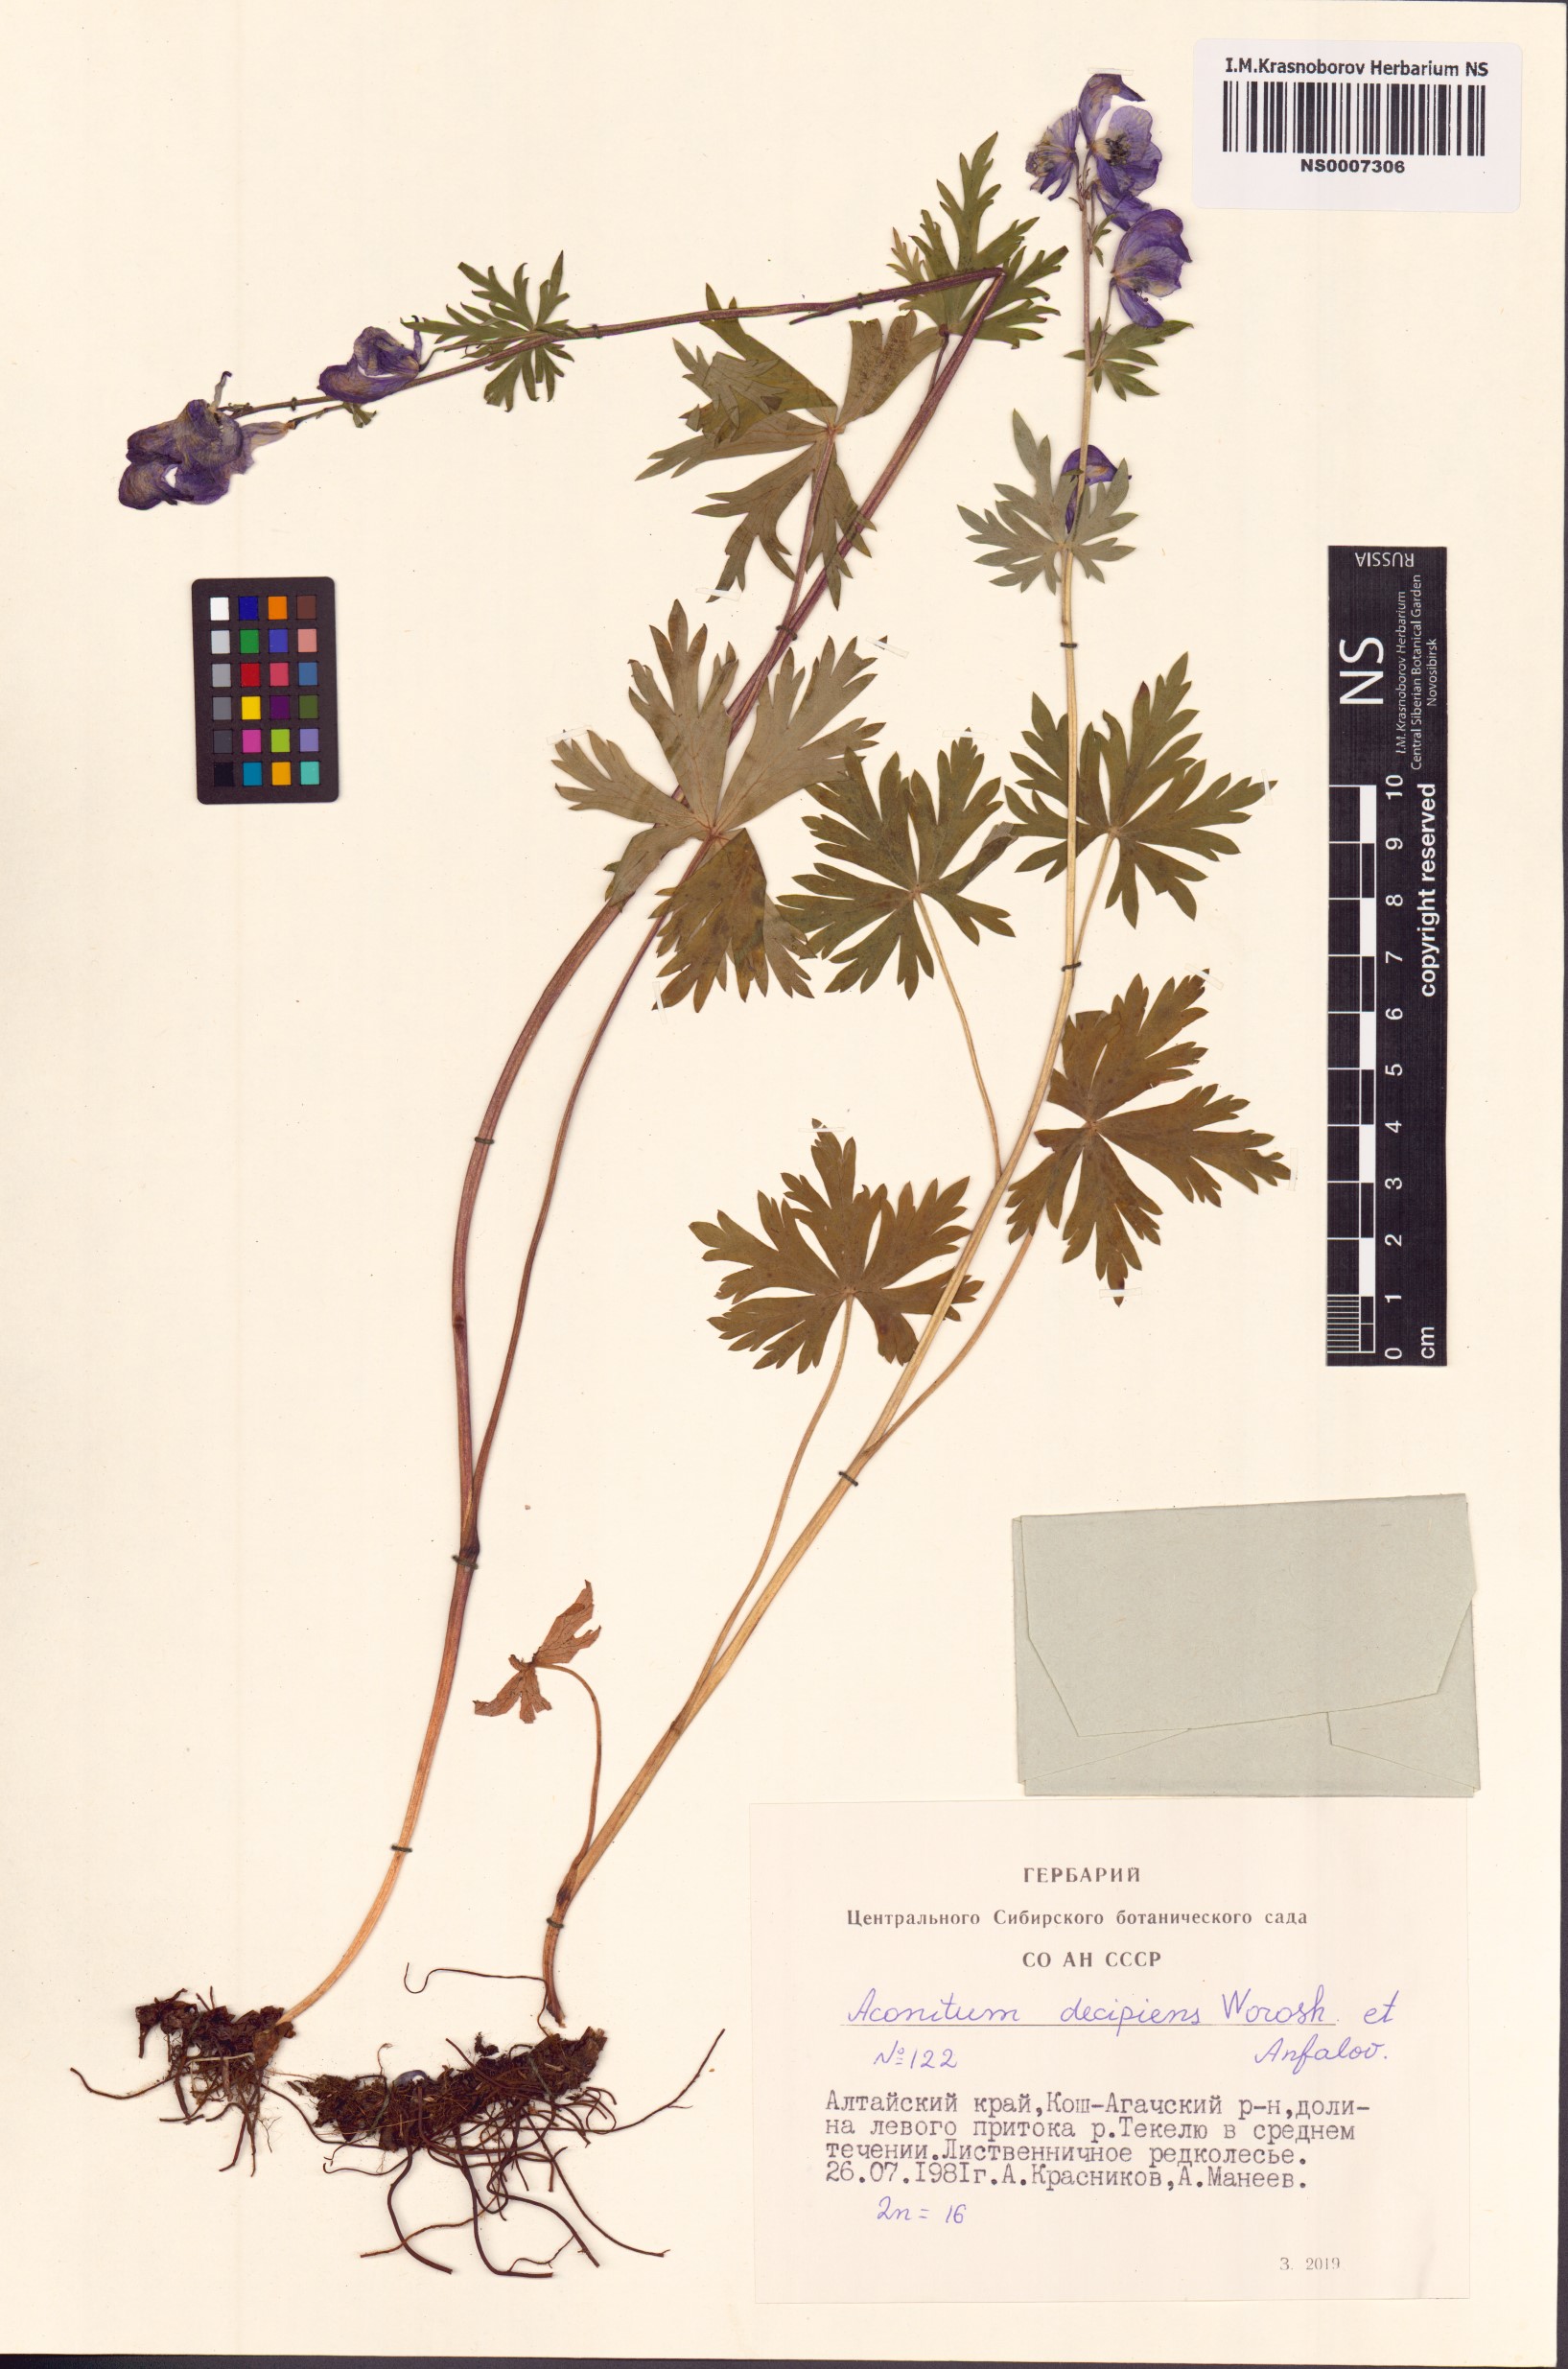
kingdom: Plantae
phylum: Tracheophyta
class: Magnoliopsida
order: Ranunculales
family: Ranunculaceae
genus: Aconitum
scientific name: Aconitum decipiens
